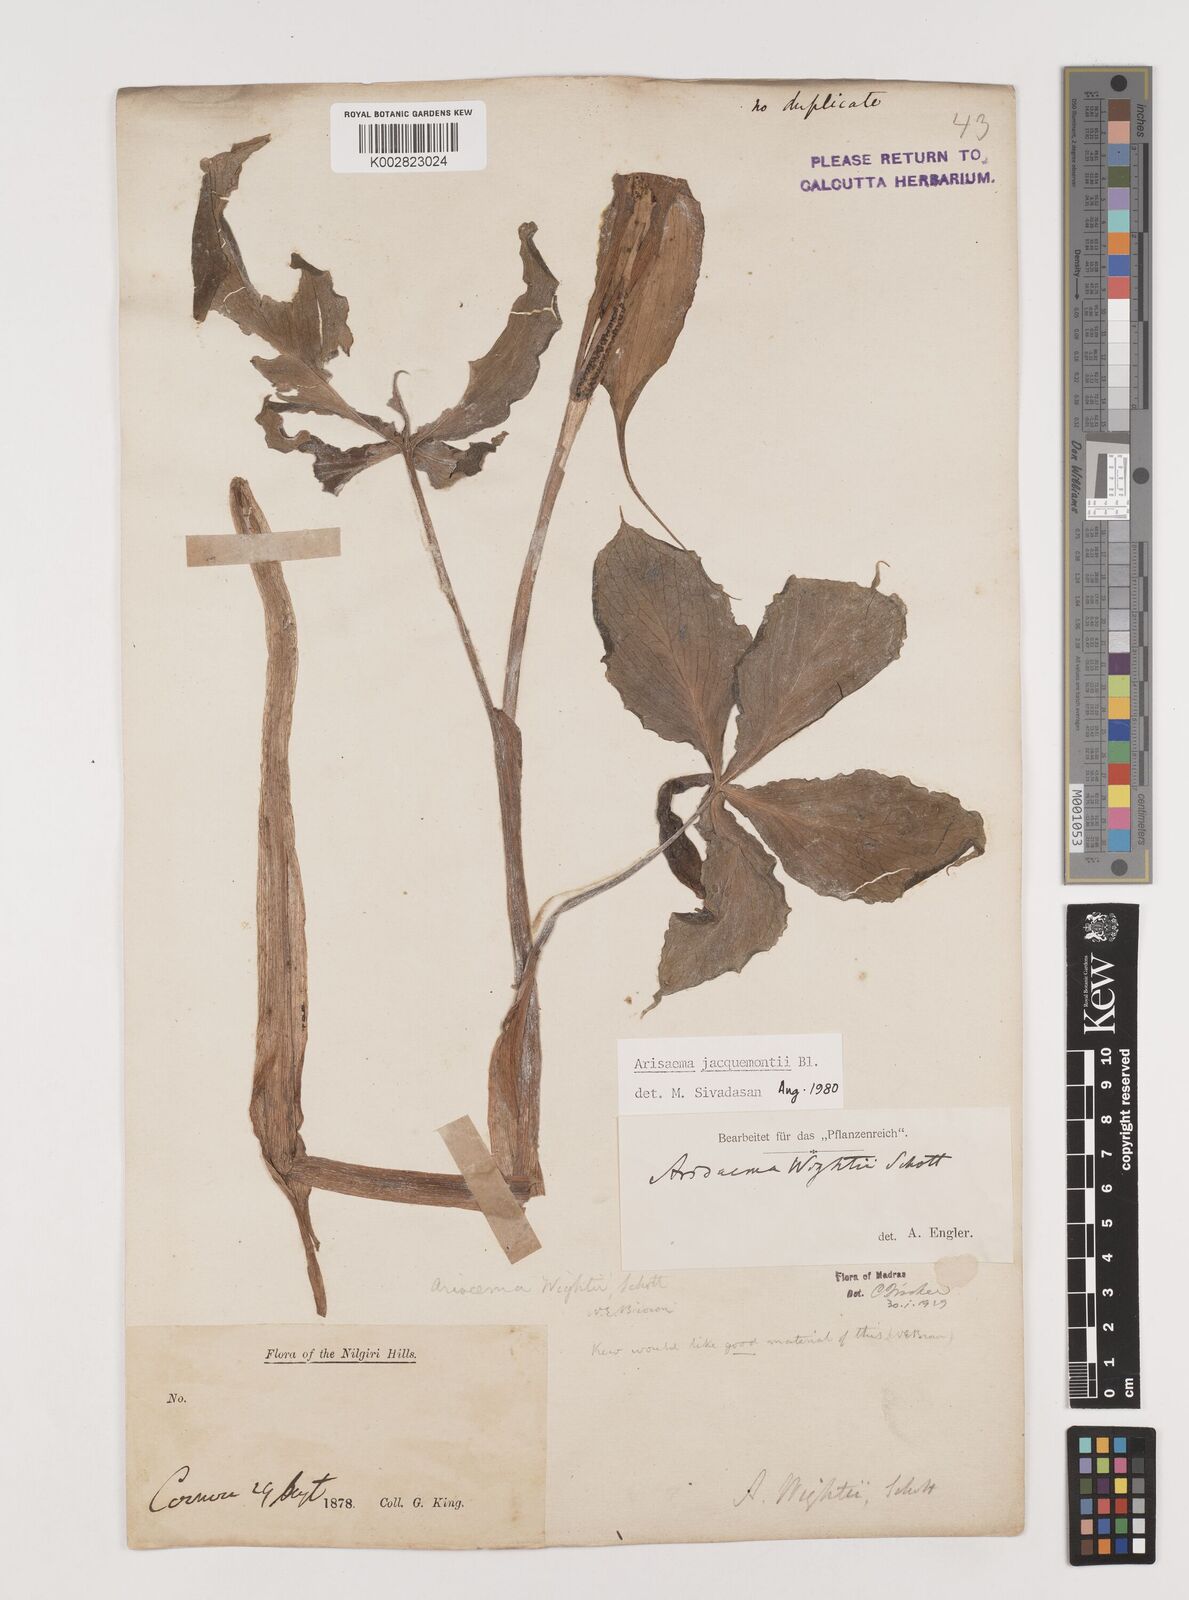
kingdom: Plantae
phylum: Tracheophyta
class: Liliopsida
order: Alismatales
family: Araceae
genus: Arisaema
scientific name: Arisaema jacquemontii
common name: Jacquemont's cobra-lily
